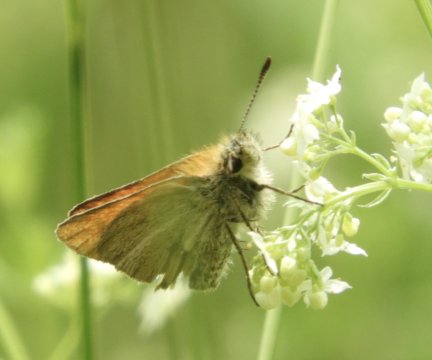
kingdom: Animalia
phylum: Arthropoda
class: Insecta
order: Lepidoptera
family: Hesperiidae
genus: Thymelicus
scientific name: Thymelicus lineola
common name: European Skipper
